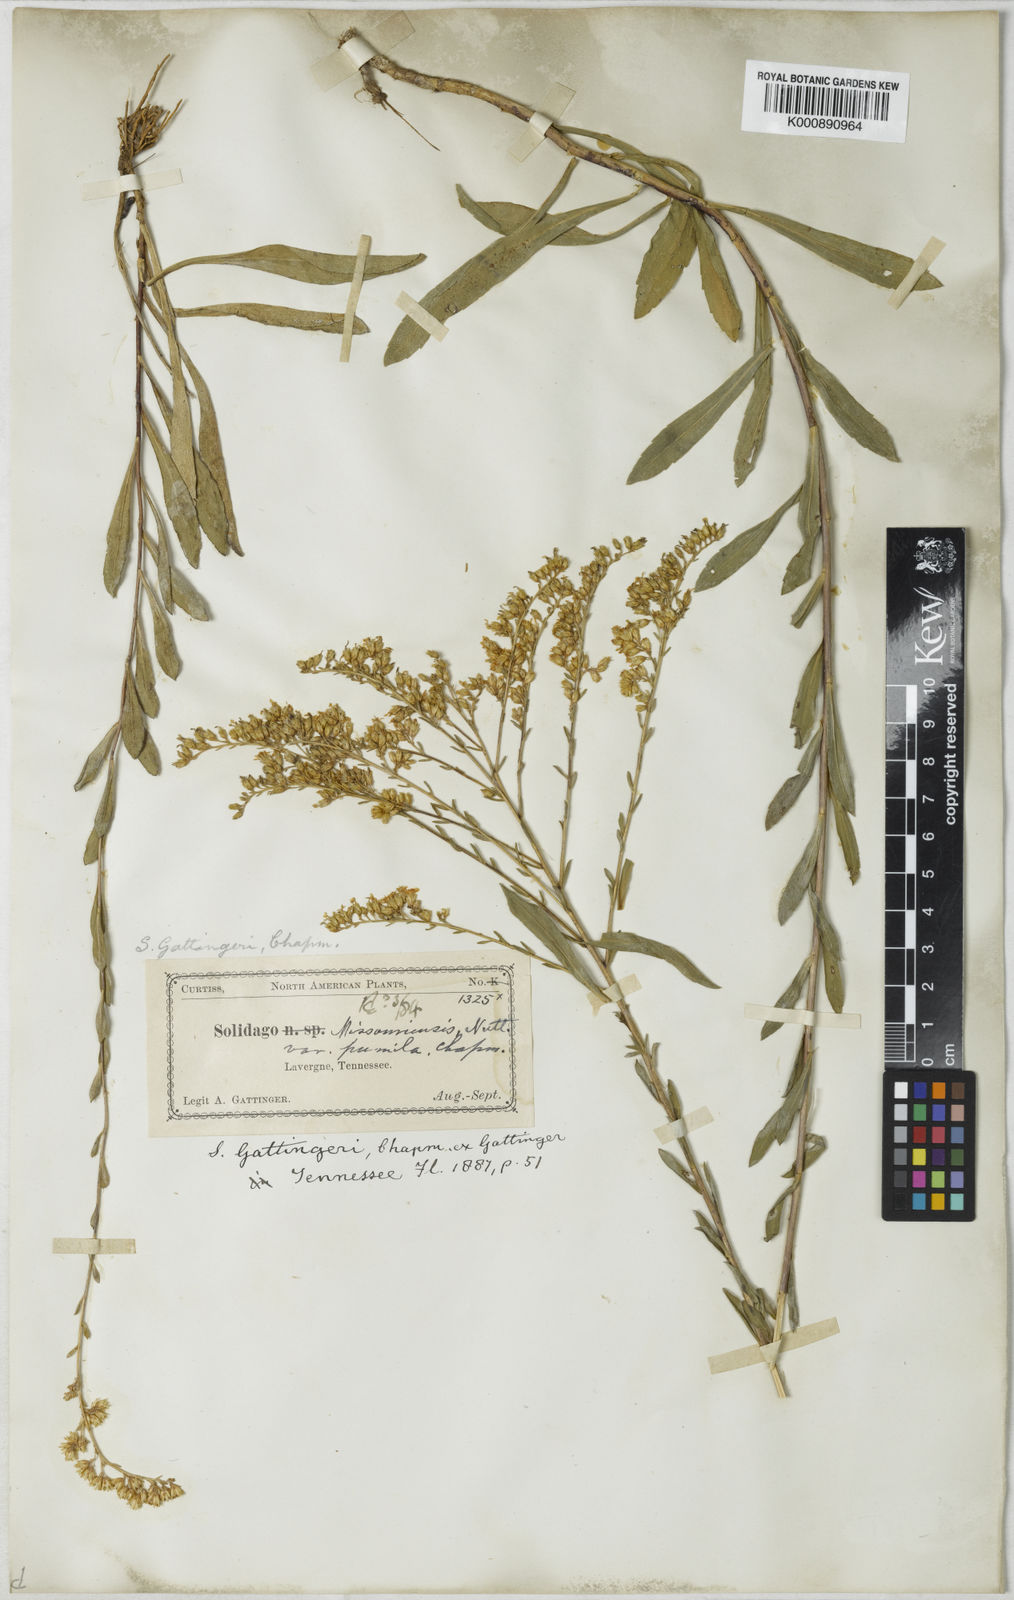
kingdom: Plantae
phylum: Tracheophyta
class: Magnoliopsida
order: Asterales
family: Asteraceae
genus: Solidago
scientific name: Solidago gattingeri
